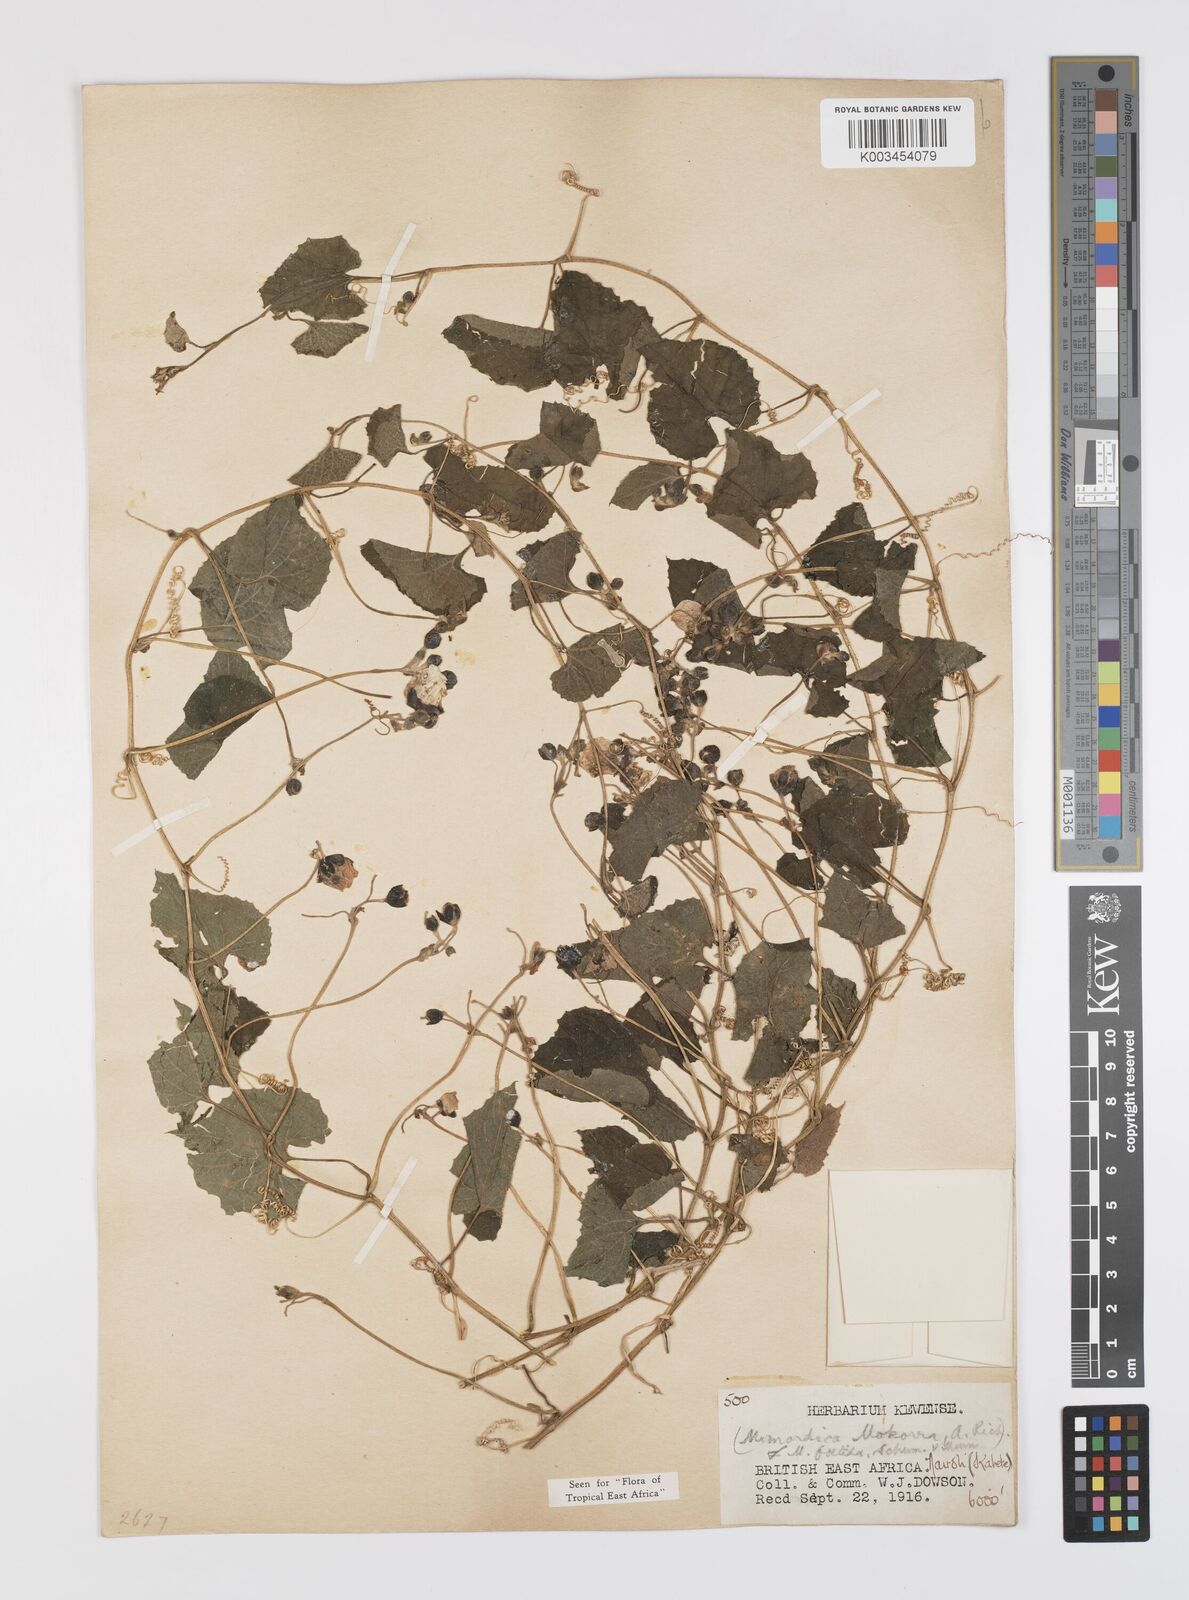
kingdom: Plantae
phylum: Tracheophyta
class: Magnoliopsida
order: Cucurbitales
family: Cucurbitaceae
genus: Momordica
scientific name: Momordica foetida
